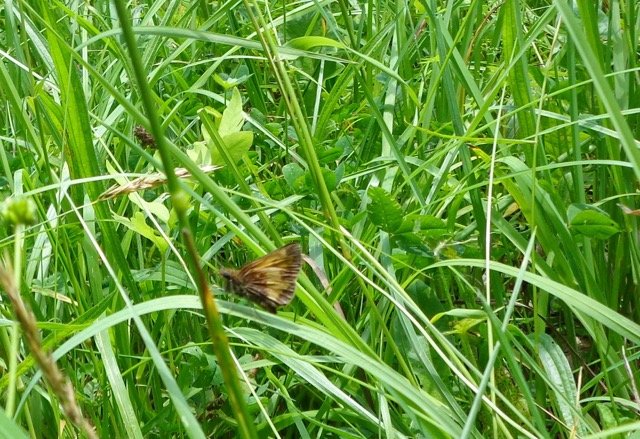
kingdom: Animalia
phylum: Arthropoda
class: Insecta
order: Lepidoptera
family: Hesperiidae
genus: Lon
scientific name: Lon hobomok
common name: Hobomok Skipper
